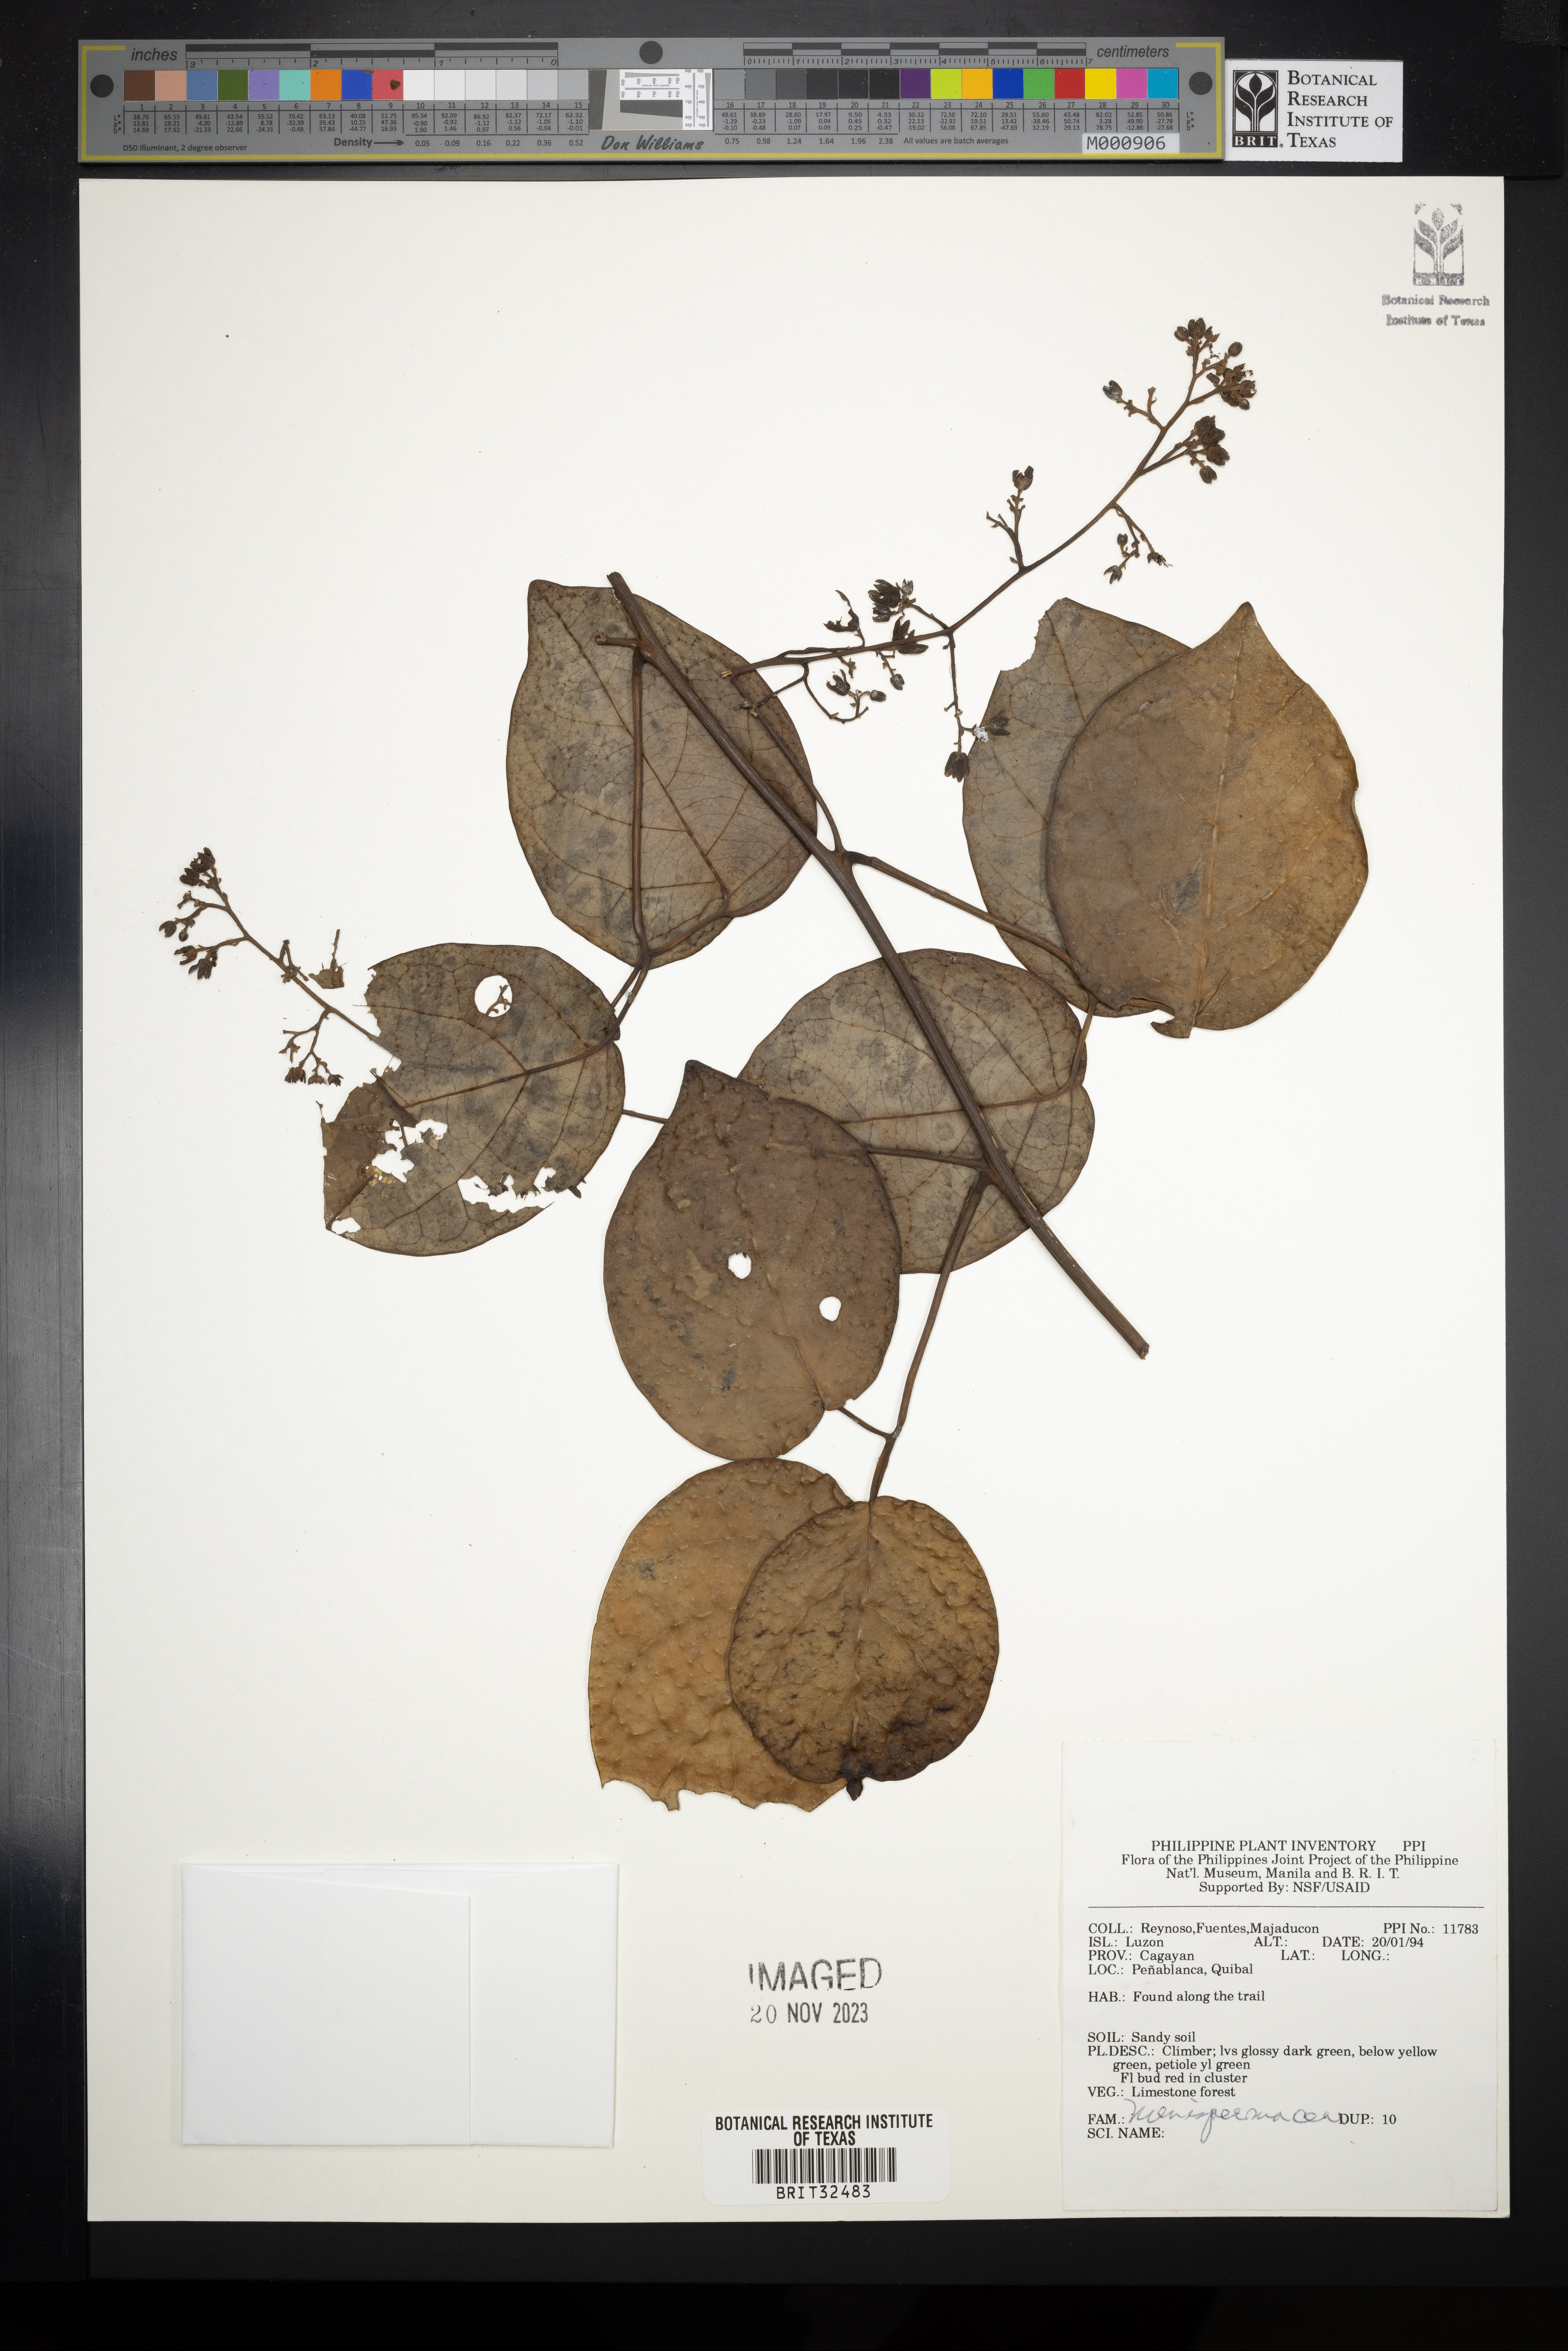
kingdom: Plantae
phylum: Tracheophyta
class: Magnoliopsida
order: Ranunculales
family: Menispermaceae
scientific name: Menispermaceae
